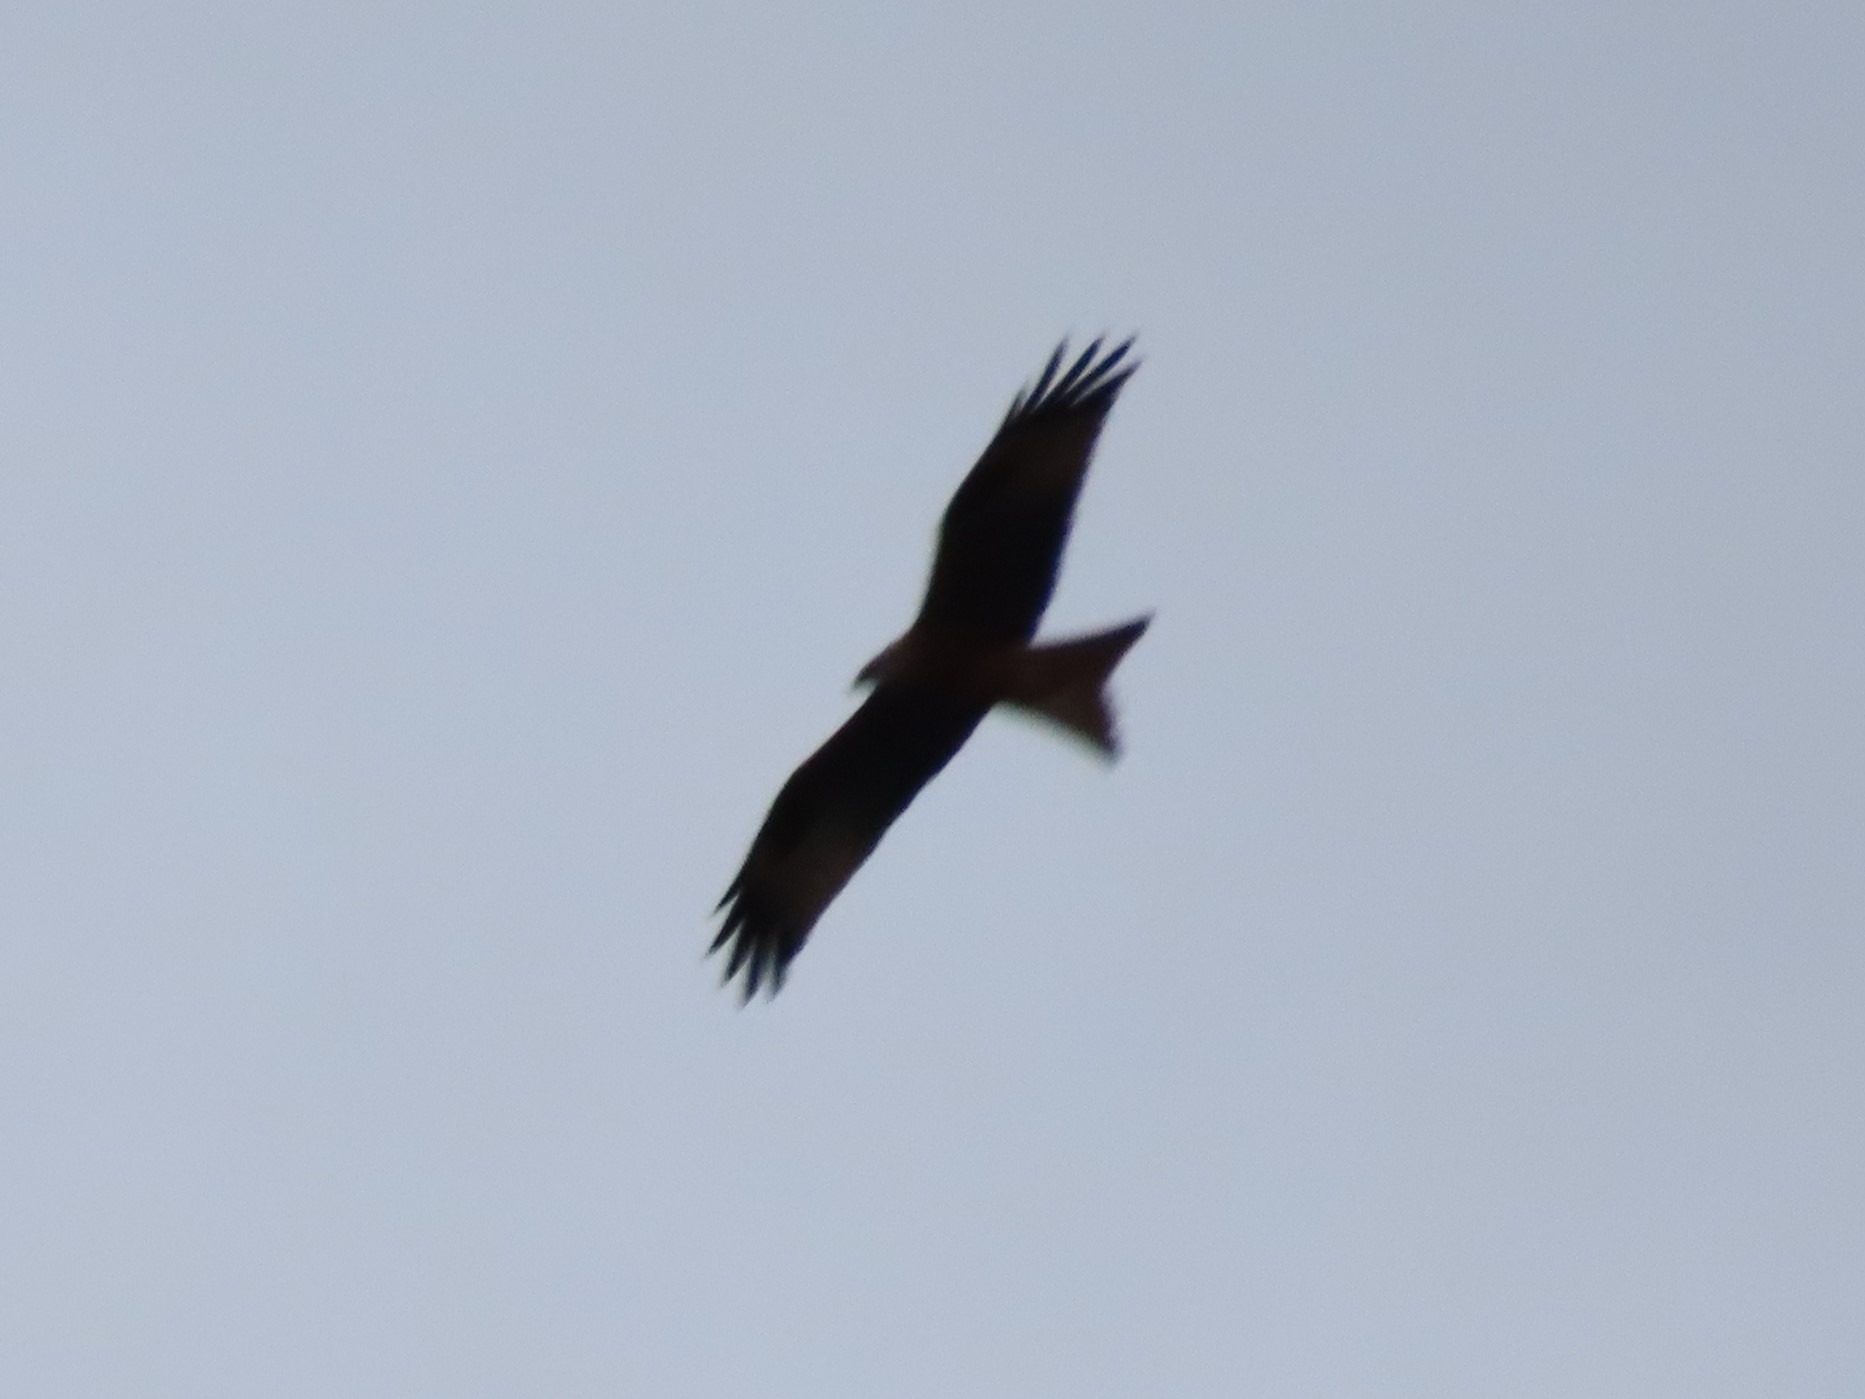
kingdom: Animalia
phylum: Chordata
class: Aves
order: Accipitriformes
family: Accipitridae
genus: Milvus
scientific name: Milvus milvus
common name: Rød glente
